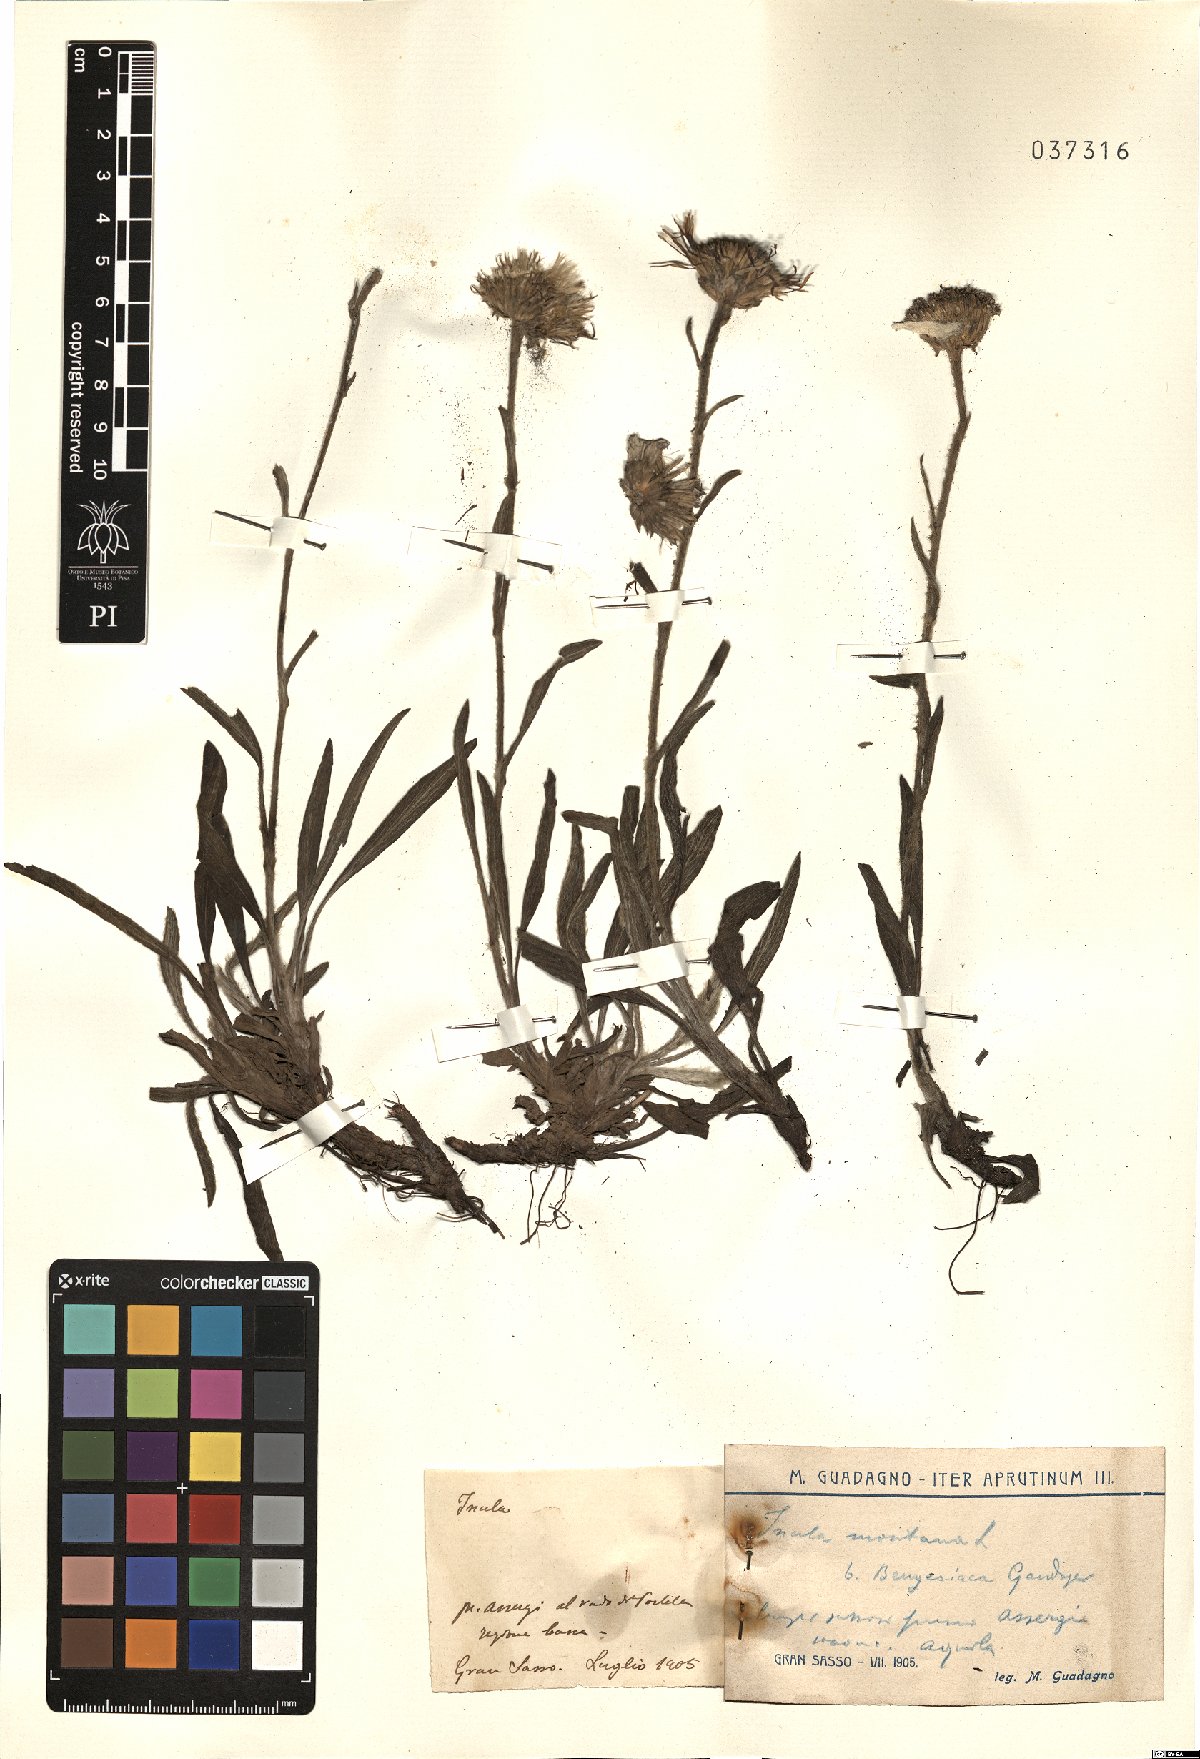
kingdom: Plantae
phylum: Tracheophyta
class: Magnoliopsida
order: Asterales
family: Asteraceae
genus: Pentanema
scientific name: Pentanema montanum
